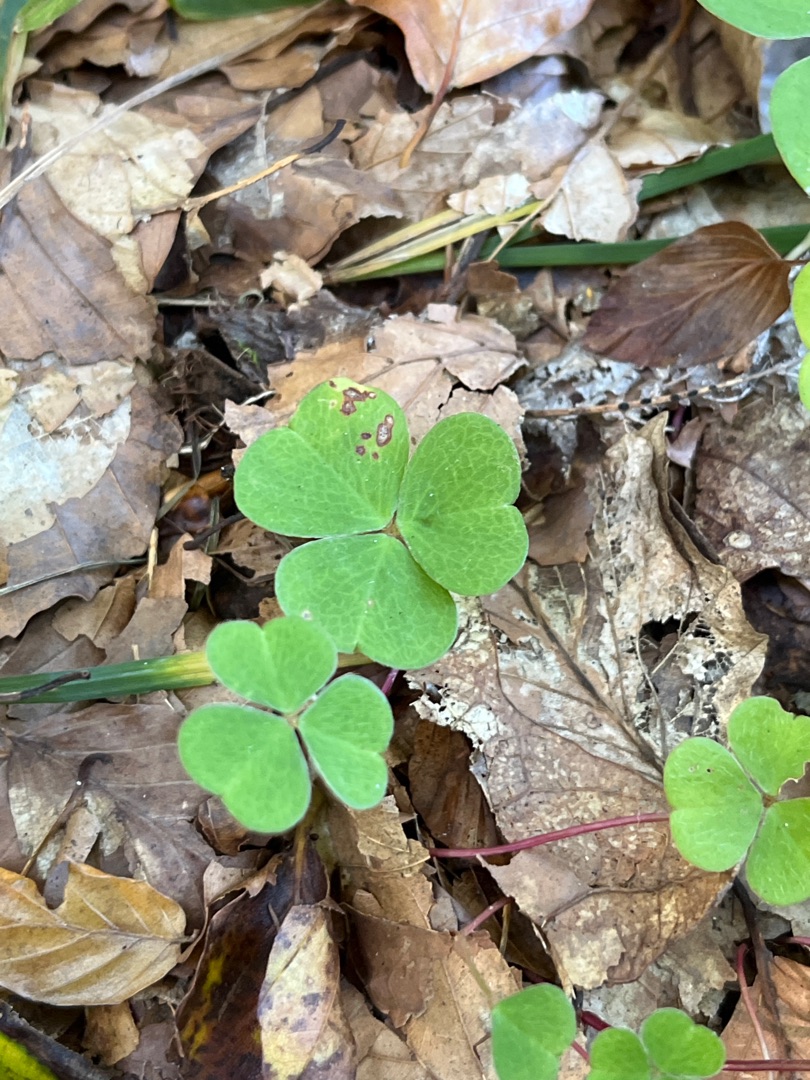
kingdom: Plantae
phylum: Tracheophyta
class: Magnoliopsida
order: Oxalidales
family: Oxalidaceae
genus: Oxalis
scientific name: Oxalis acetosella
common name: Skovsyre
